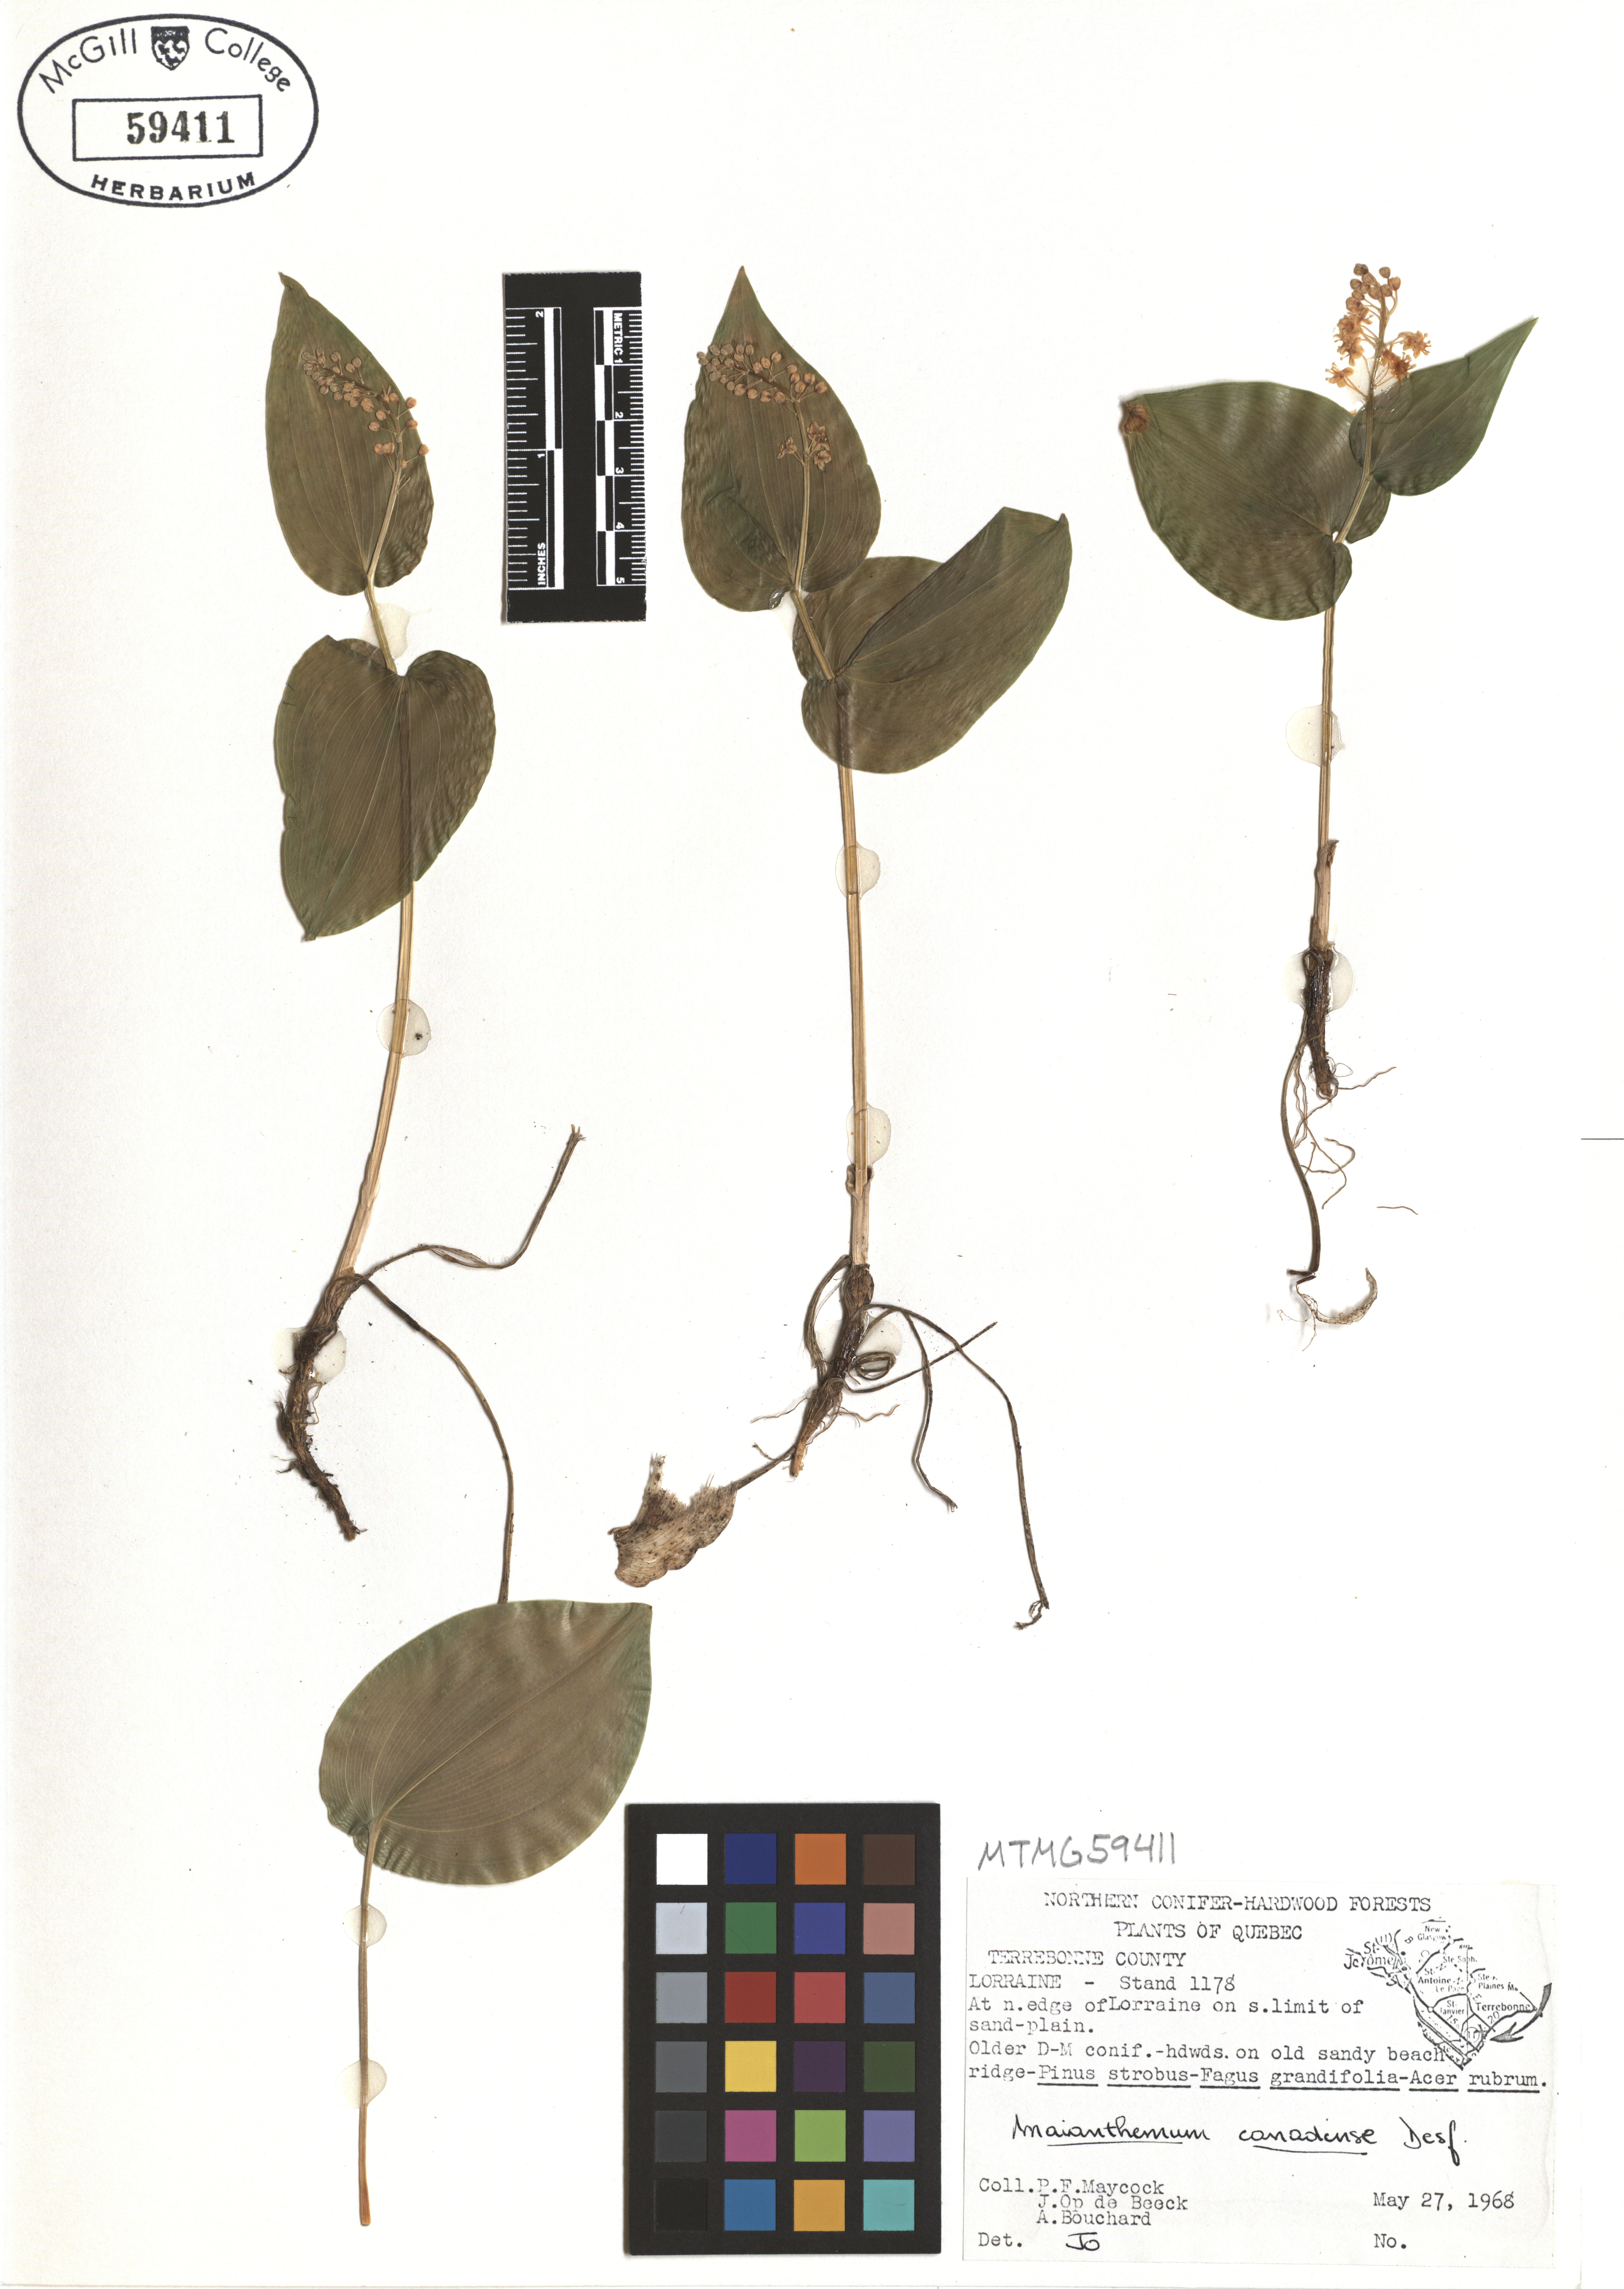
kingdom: Plantae
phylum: Tracheophyta
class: Liliopsida
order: Asparagales
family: Asparagaceae
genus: Maianthemum
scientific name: Maianthemum canadense
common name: False lily-of-the-valley
